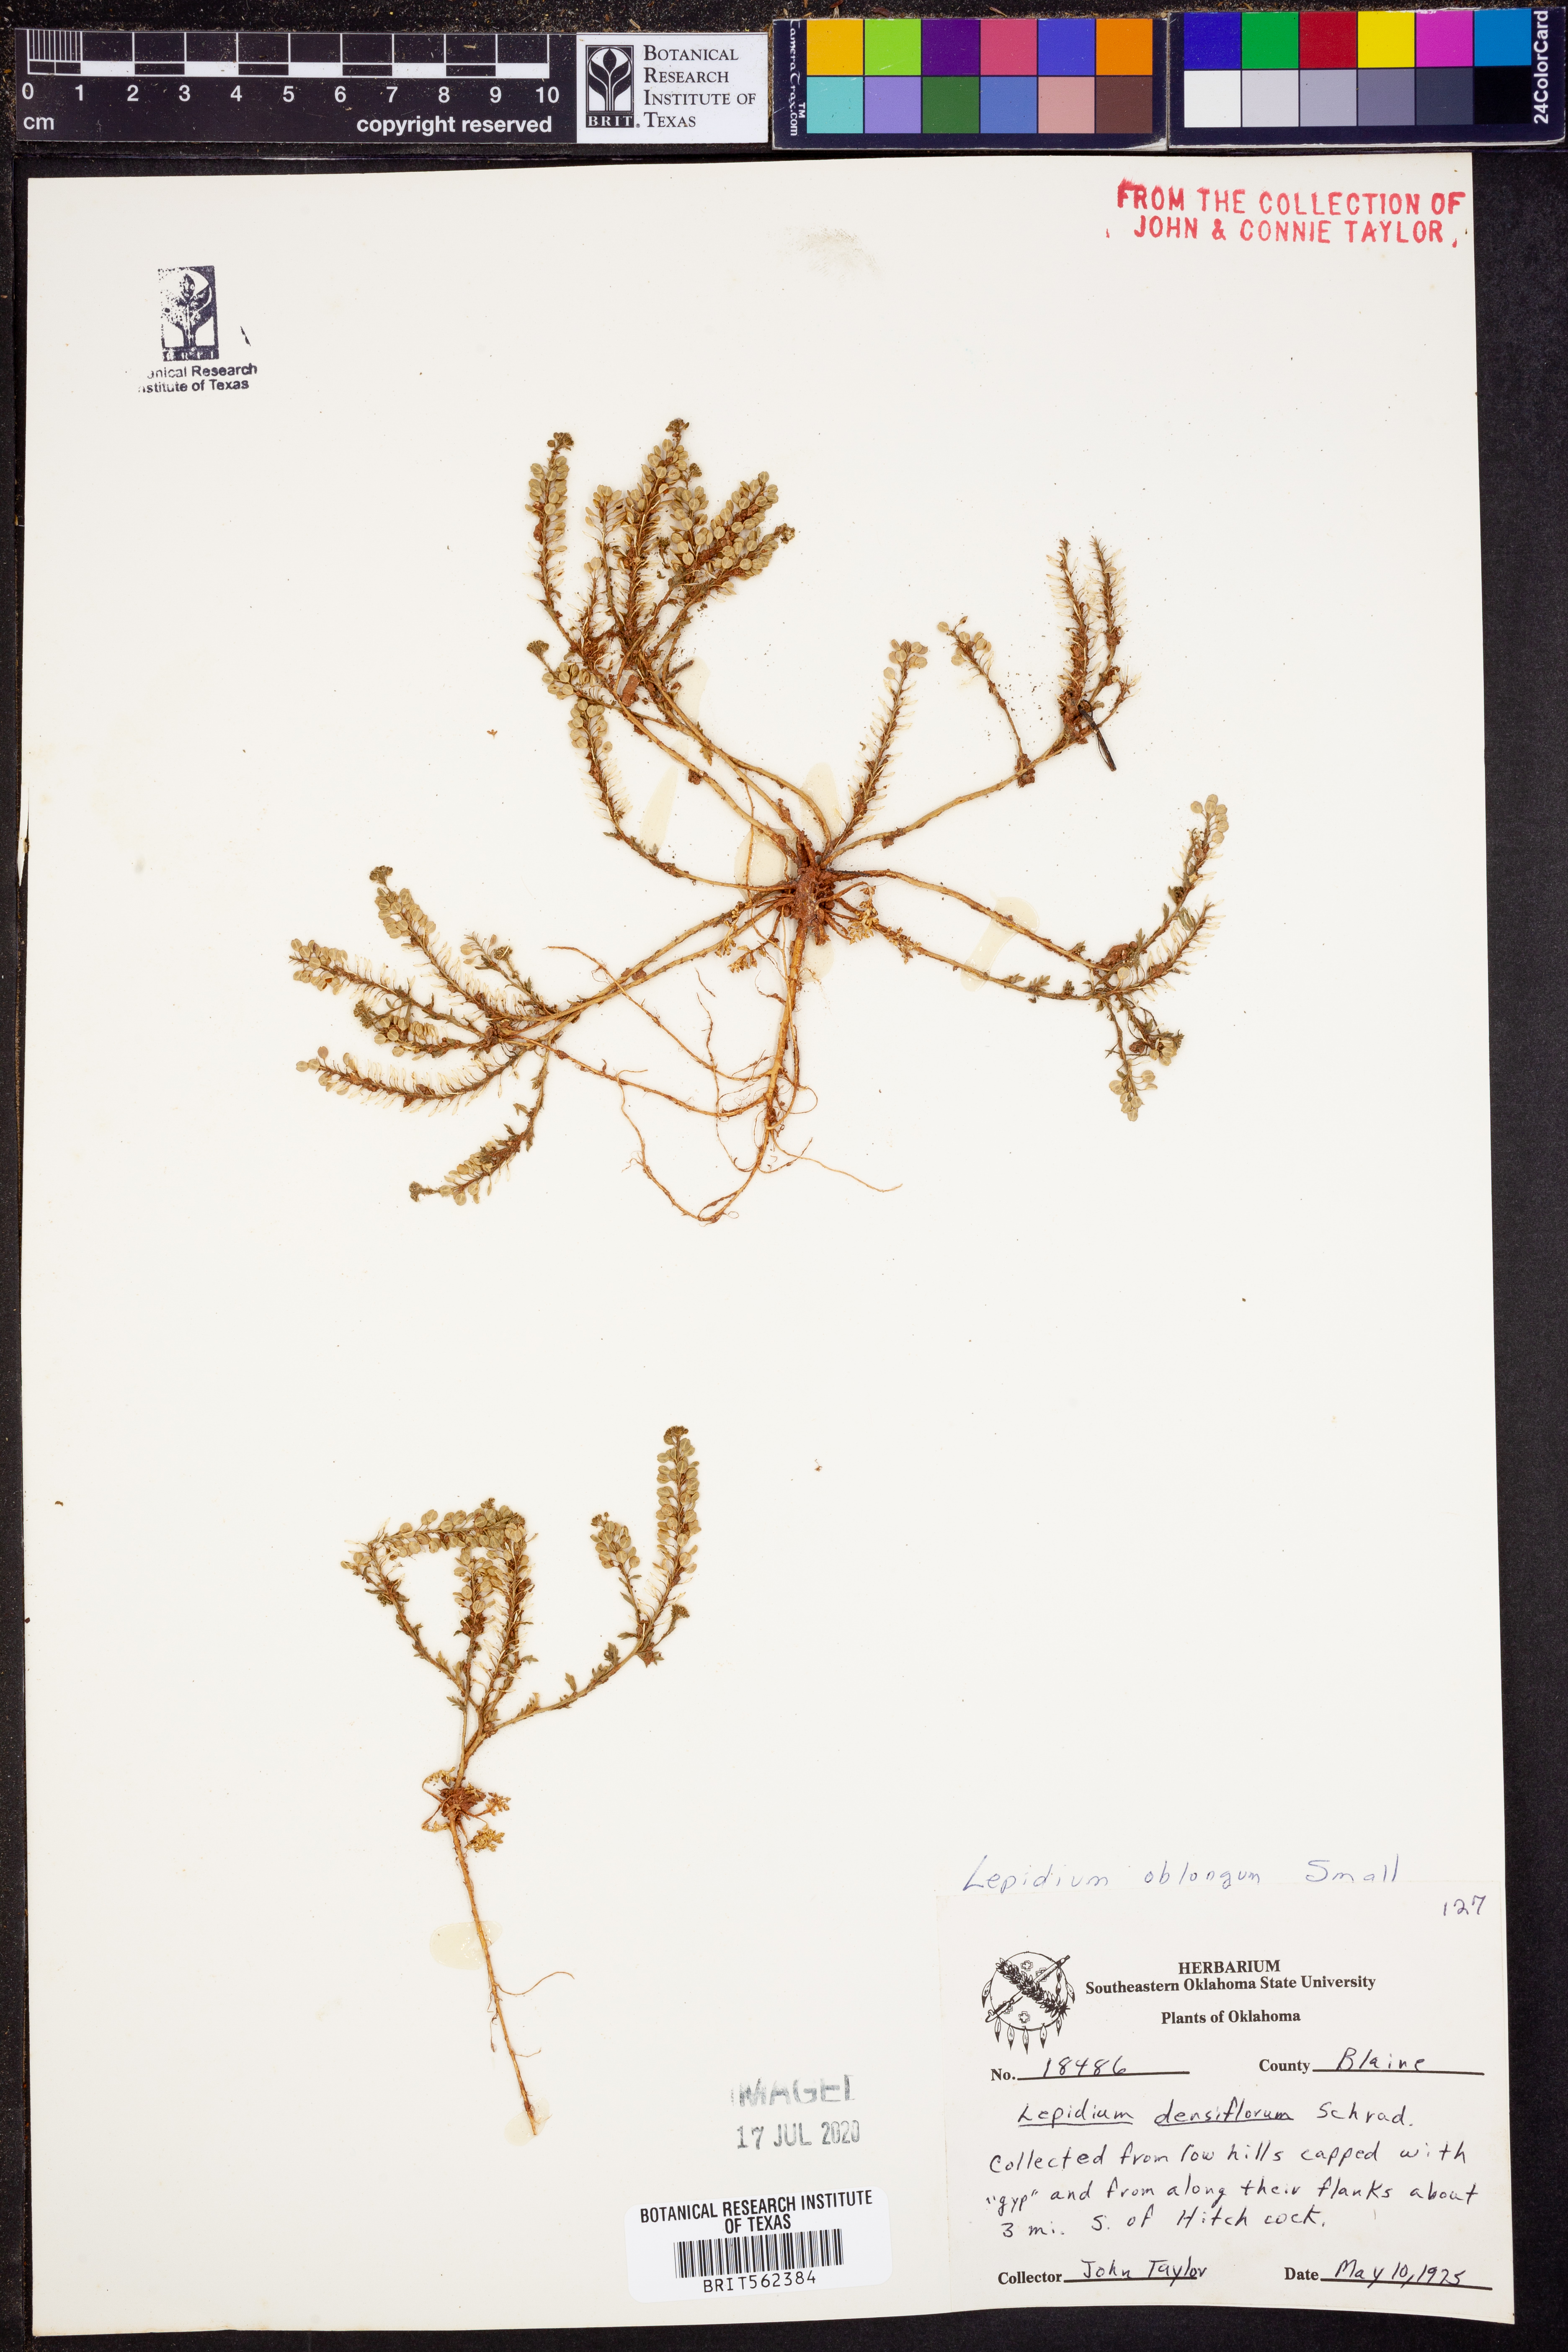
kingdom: Plantae
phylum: Tracheophyta
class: Magnoliopsida
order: Brassicales
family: Brassicaceae
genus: Lepidium
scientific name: Lepidium oblongum
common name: Veiny pepperweed
